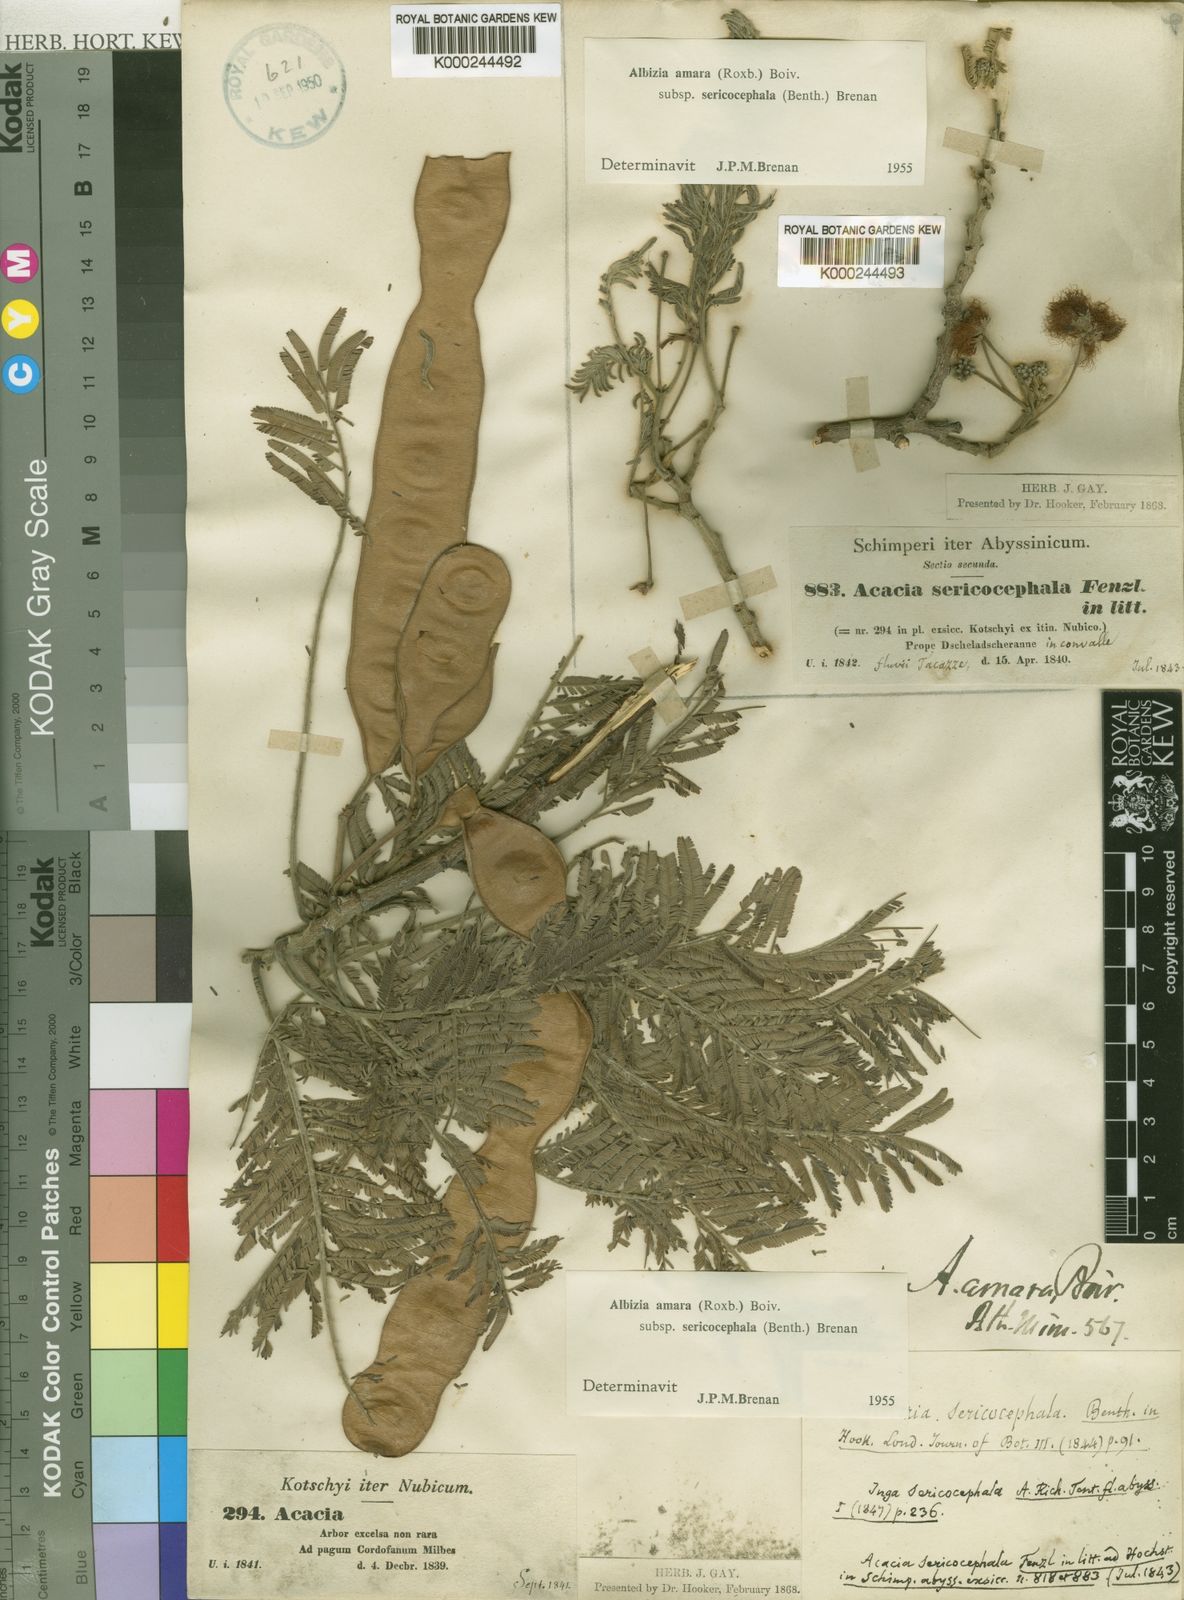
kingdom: Plantae
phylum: Tracheophyta
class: Magnoliopsida
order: Fabales
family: Fabaceae
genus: Albizia
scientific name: Albizia amara
